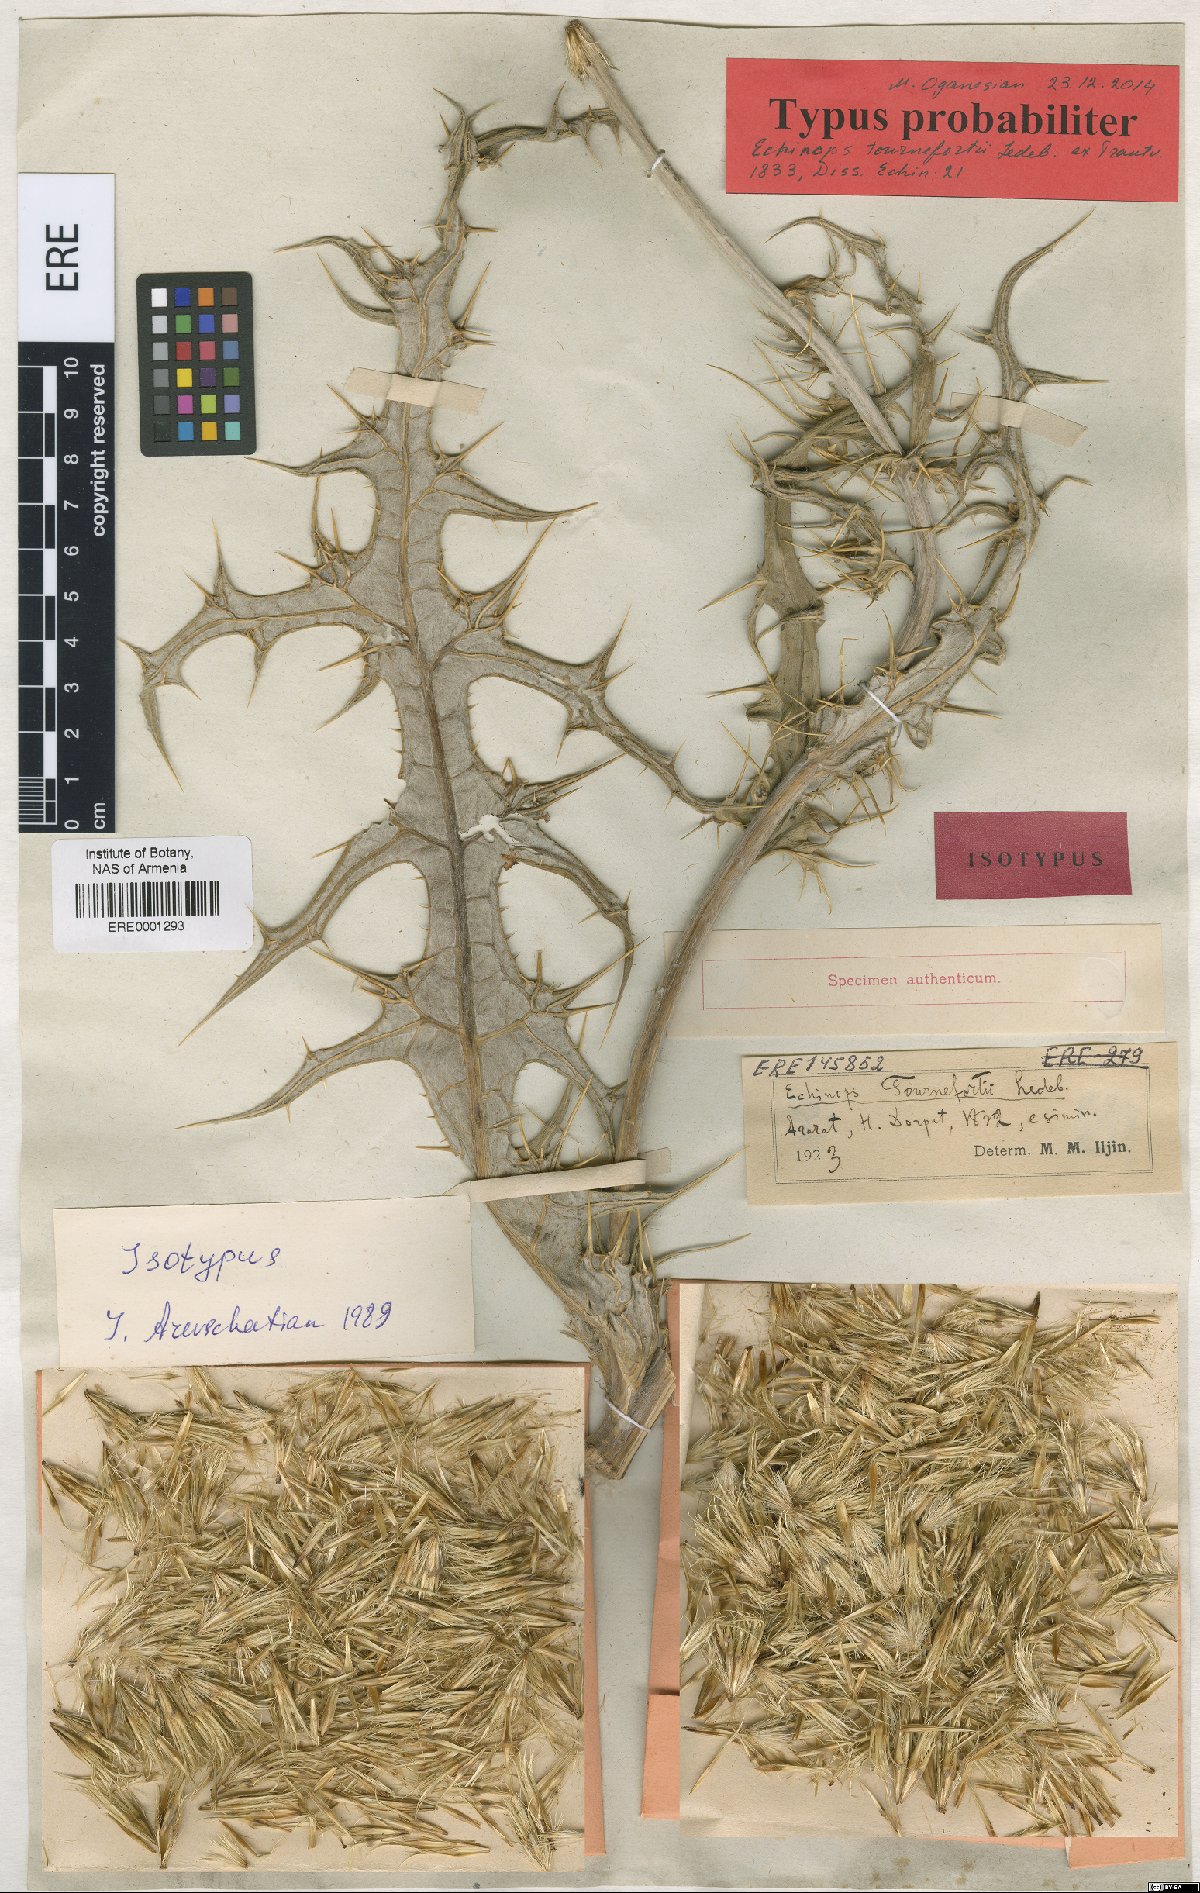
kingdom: Plantae
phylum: Tracheophyta
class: Magnoliopsida
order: Asterales
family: Asteraceae
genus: Echinops
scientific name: Echinops tournefortii
